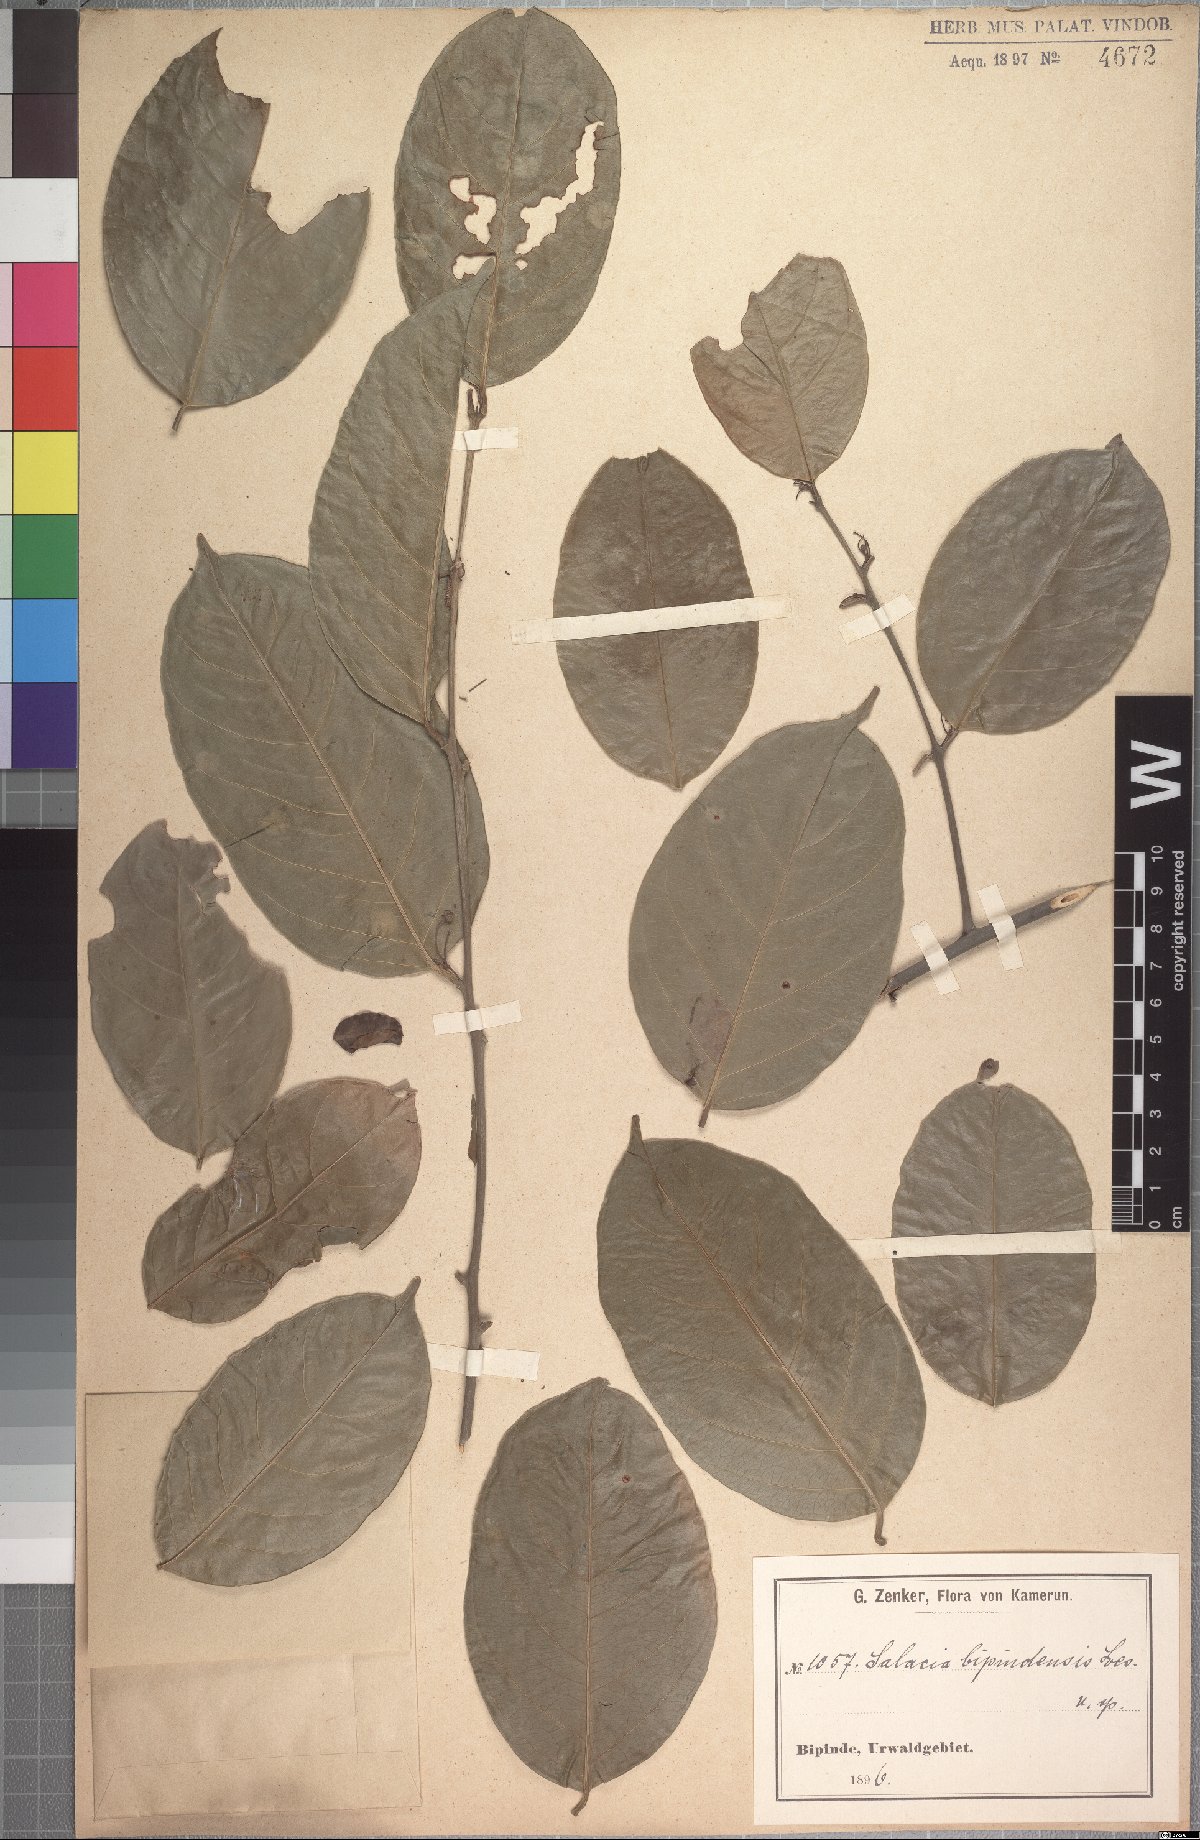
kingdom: Plantae
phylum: Tracheophyta
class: Magnoliopsida
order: Celastrales
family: Celastraceae
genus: Salacia
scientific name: Salacia nitida
